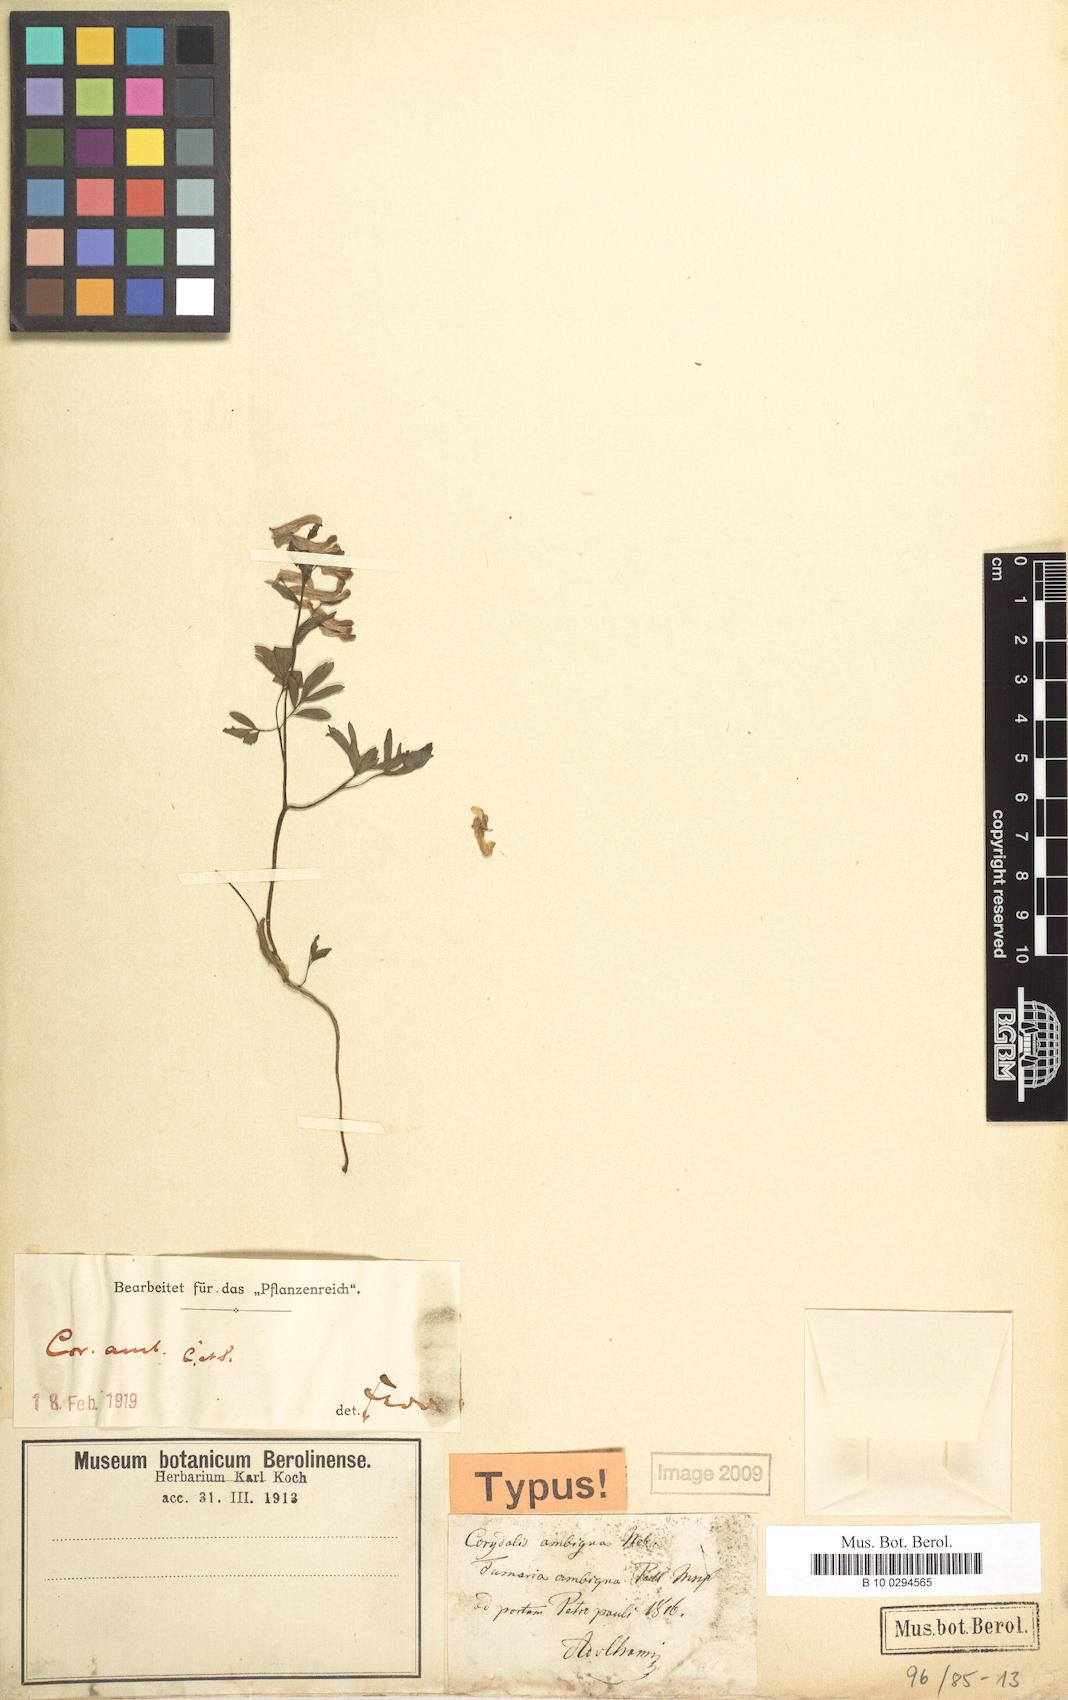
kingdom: Plantae
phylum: Tracheophyta
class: Magnoliopsida
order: Ranunculales
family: Papaveraceae
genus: Corydalis
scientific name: Corydalis ambigua
